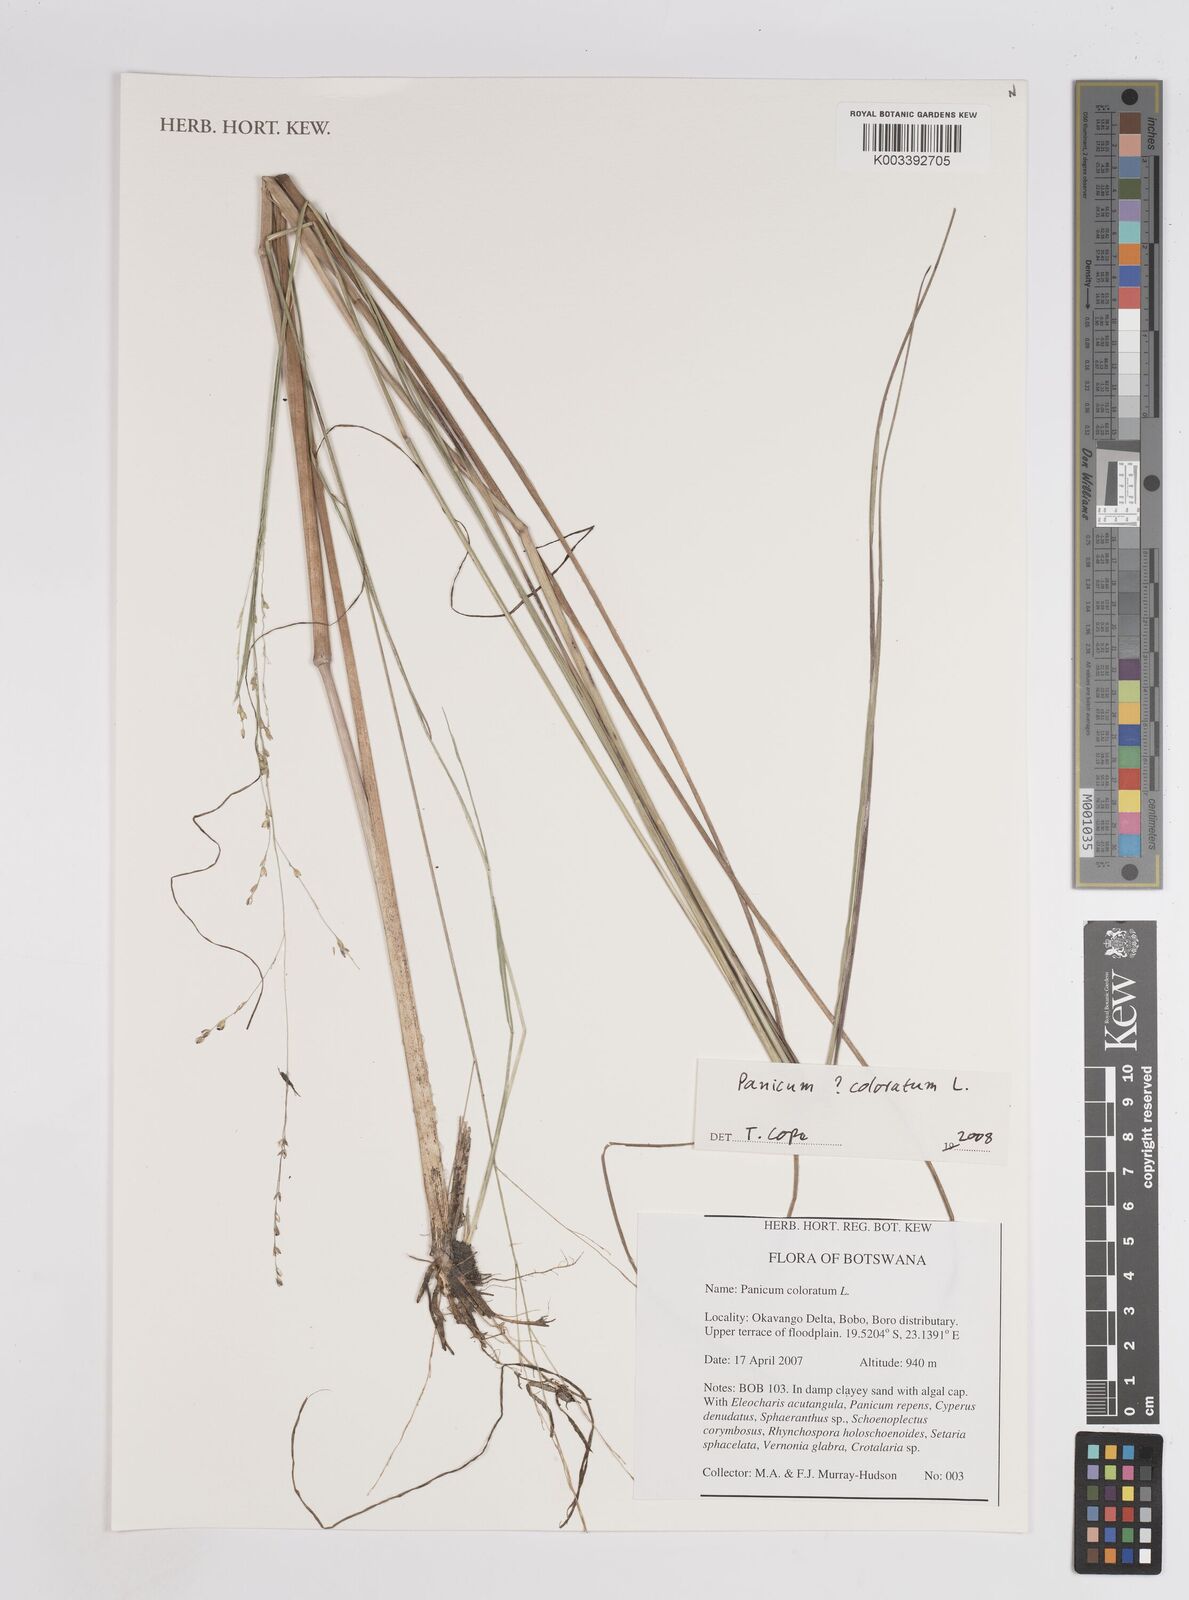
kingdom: Plantae
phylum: Tracheophyta
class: Liliopsida
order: Poales
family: Poaceae
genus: Panicum
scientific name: Panicum coloratum
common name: Kleingrass
